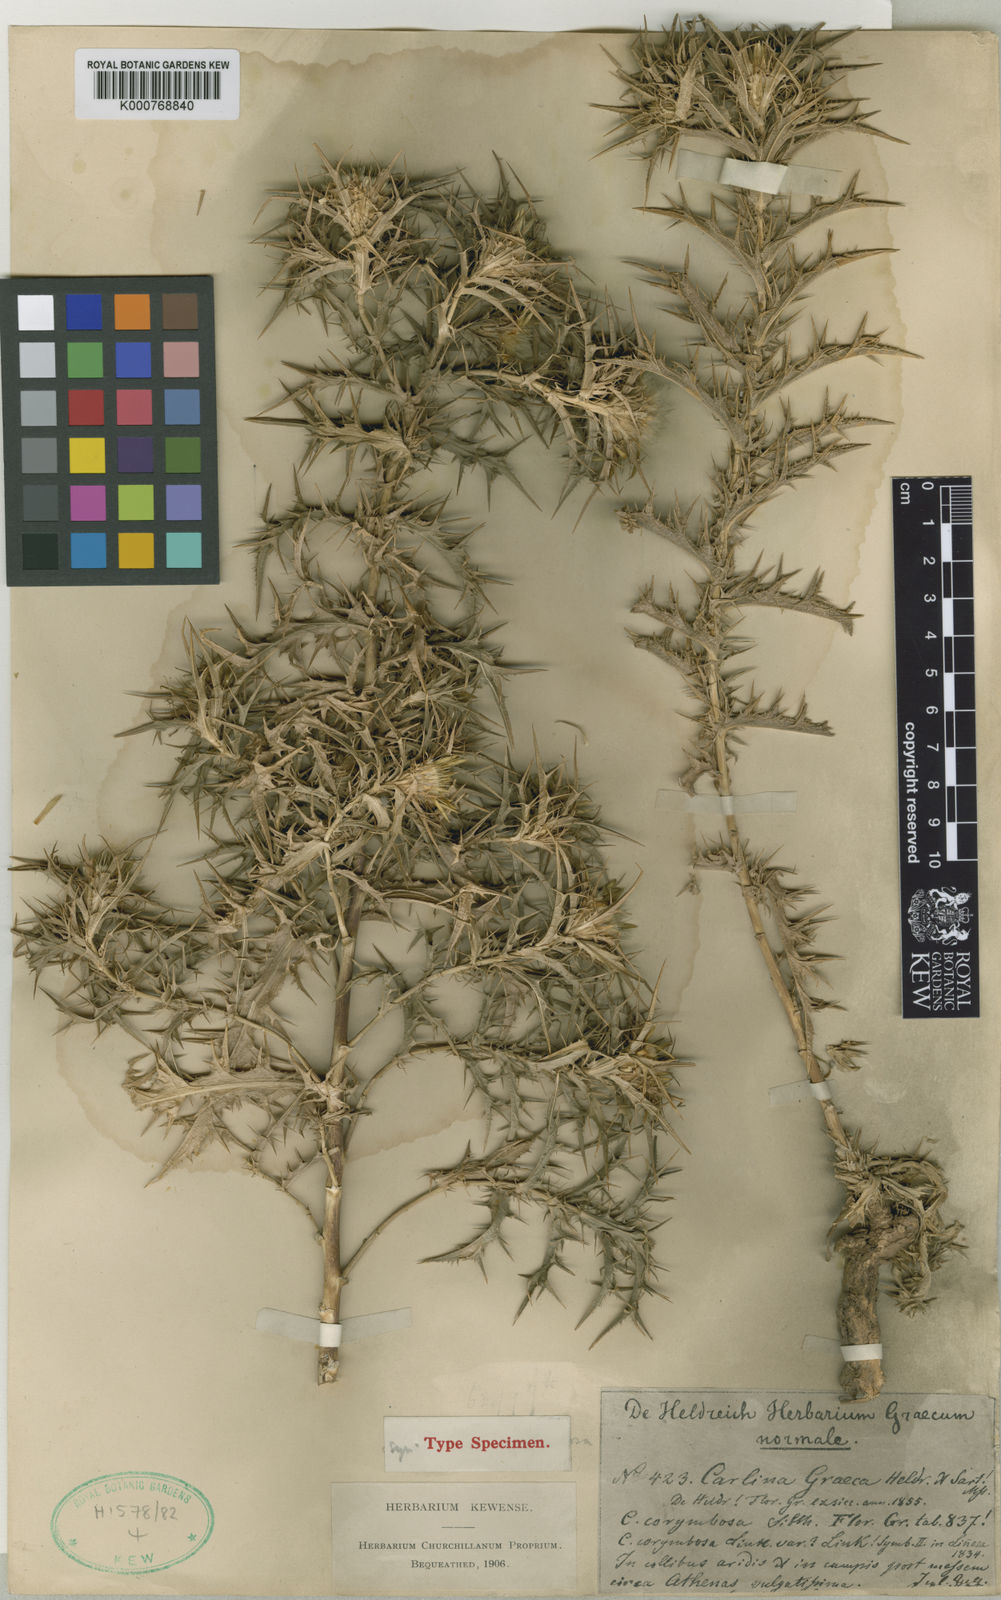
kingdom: Plantae
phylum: Tracheophyta
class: Magnoliopsida
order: Asterales
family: Asteraceae
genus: Carlina
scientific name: Carlina graeca
